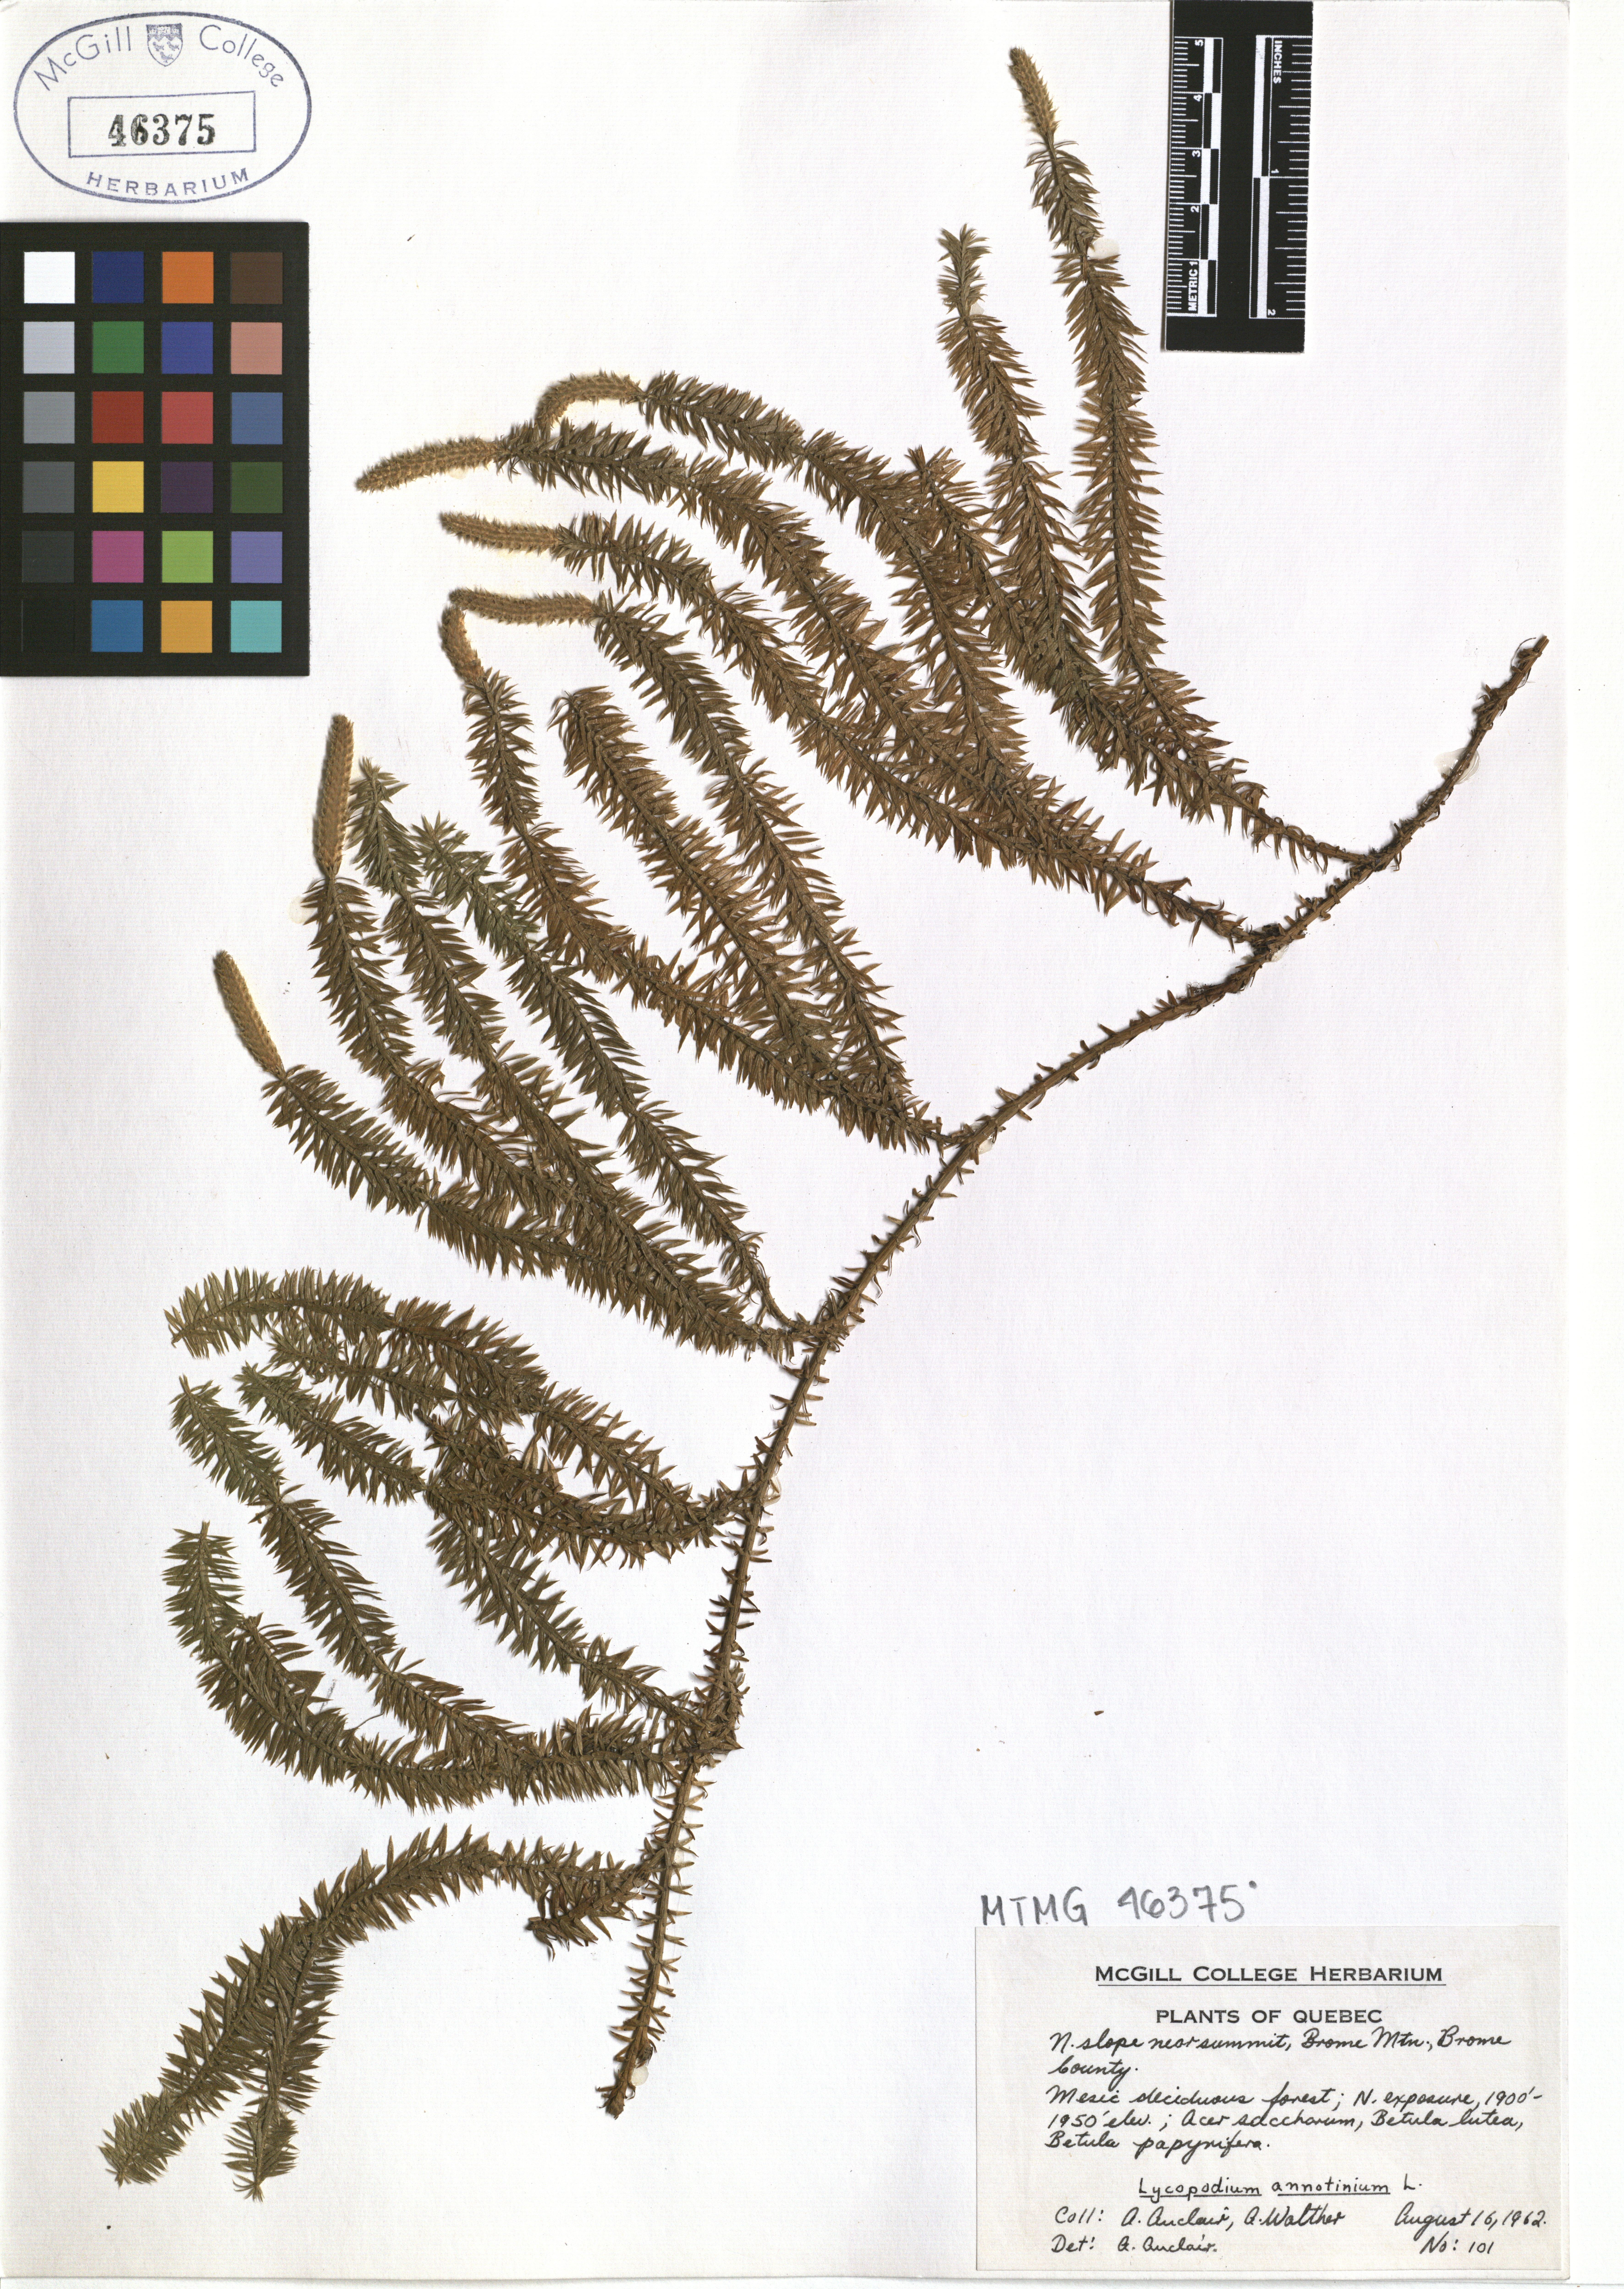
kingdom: Plantae
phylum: Tracheophyta
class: Lycopodiopsida
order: Lycopodiales
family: Lycopodiaceae
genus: Spinulum
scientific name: Spinulum annotinum
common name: Interrupted club-moss
